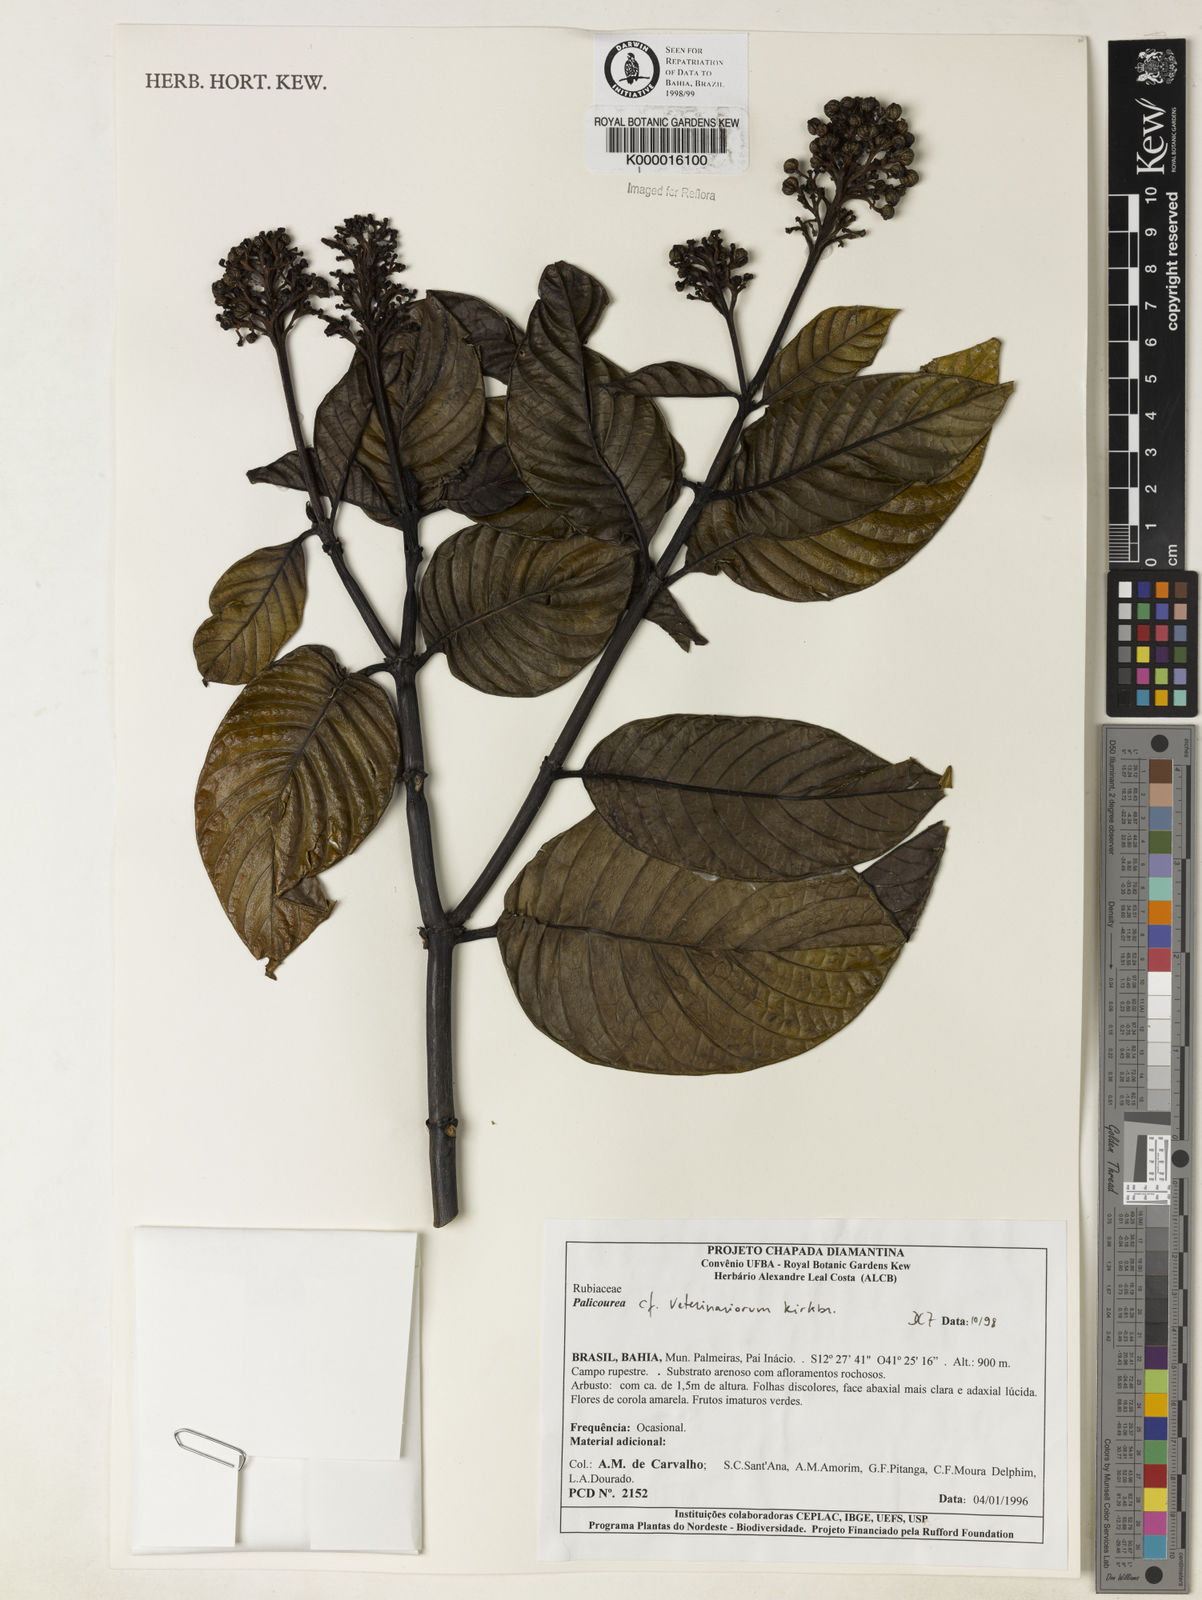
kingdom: Plantae
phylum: Tracheophyta
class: Magnoliopsida
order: Gentianales
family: Rubiaceae
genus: Palicourea
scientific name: Palicourea veterinariorum
